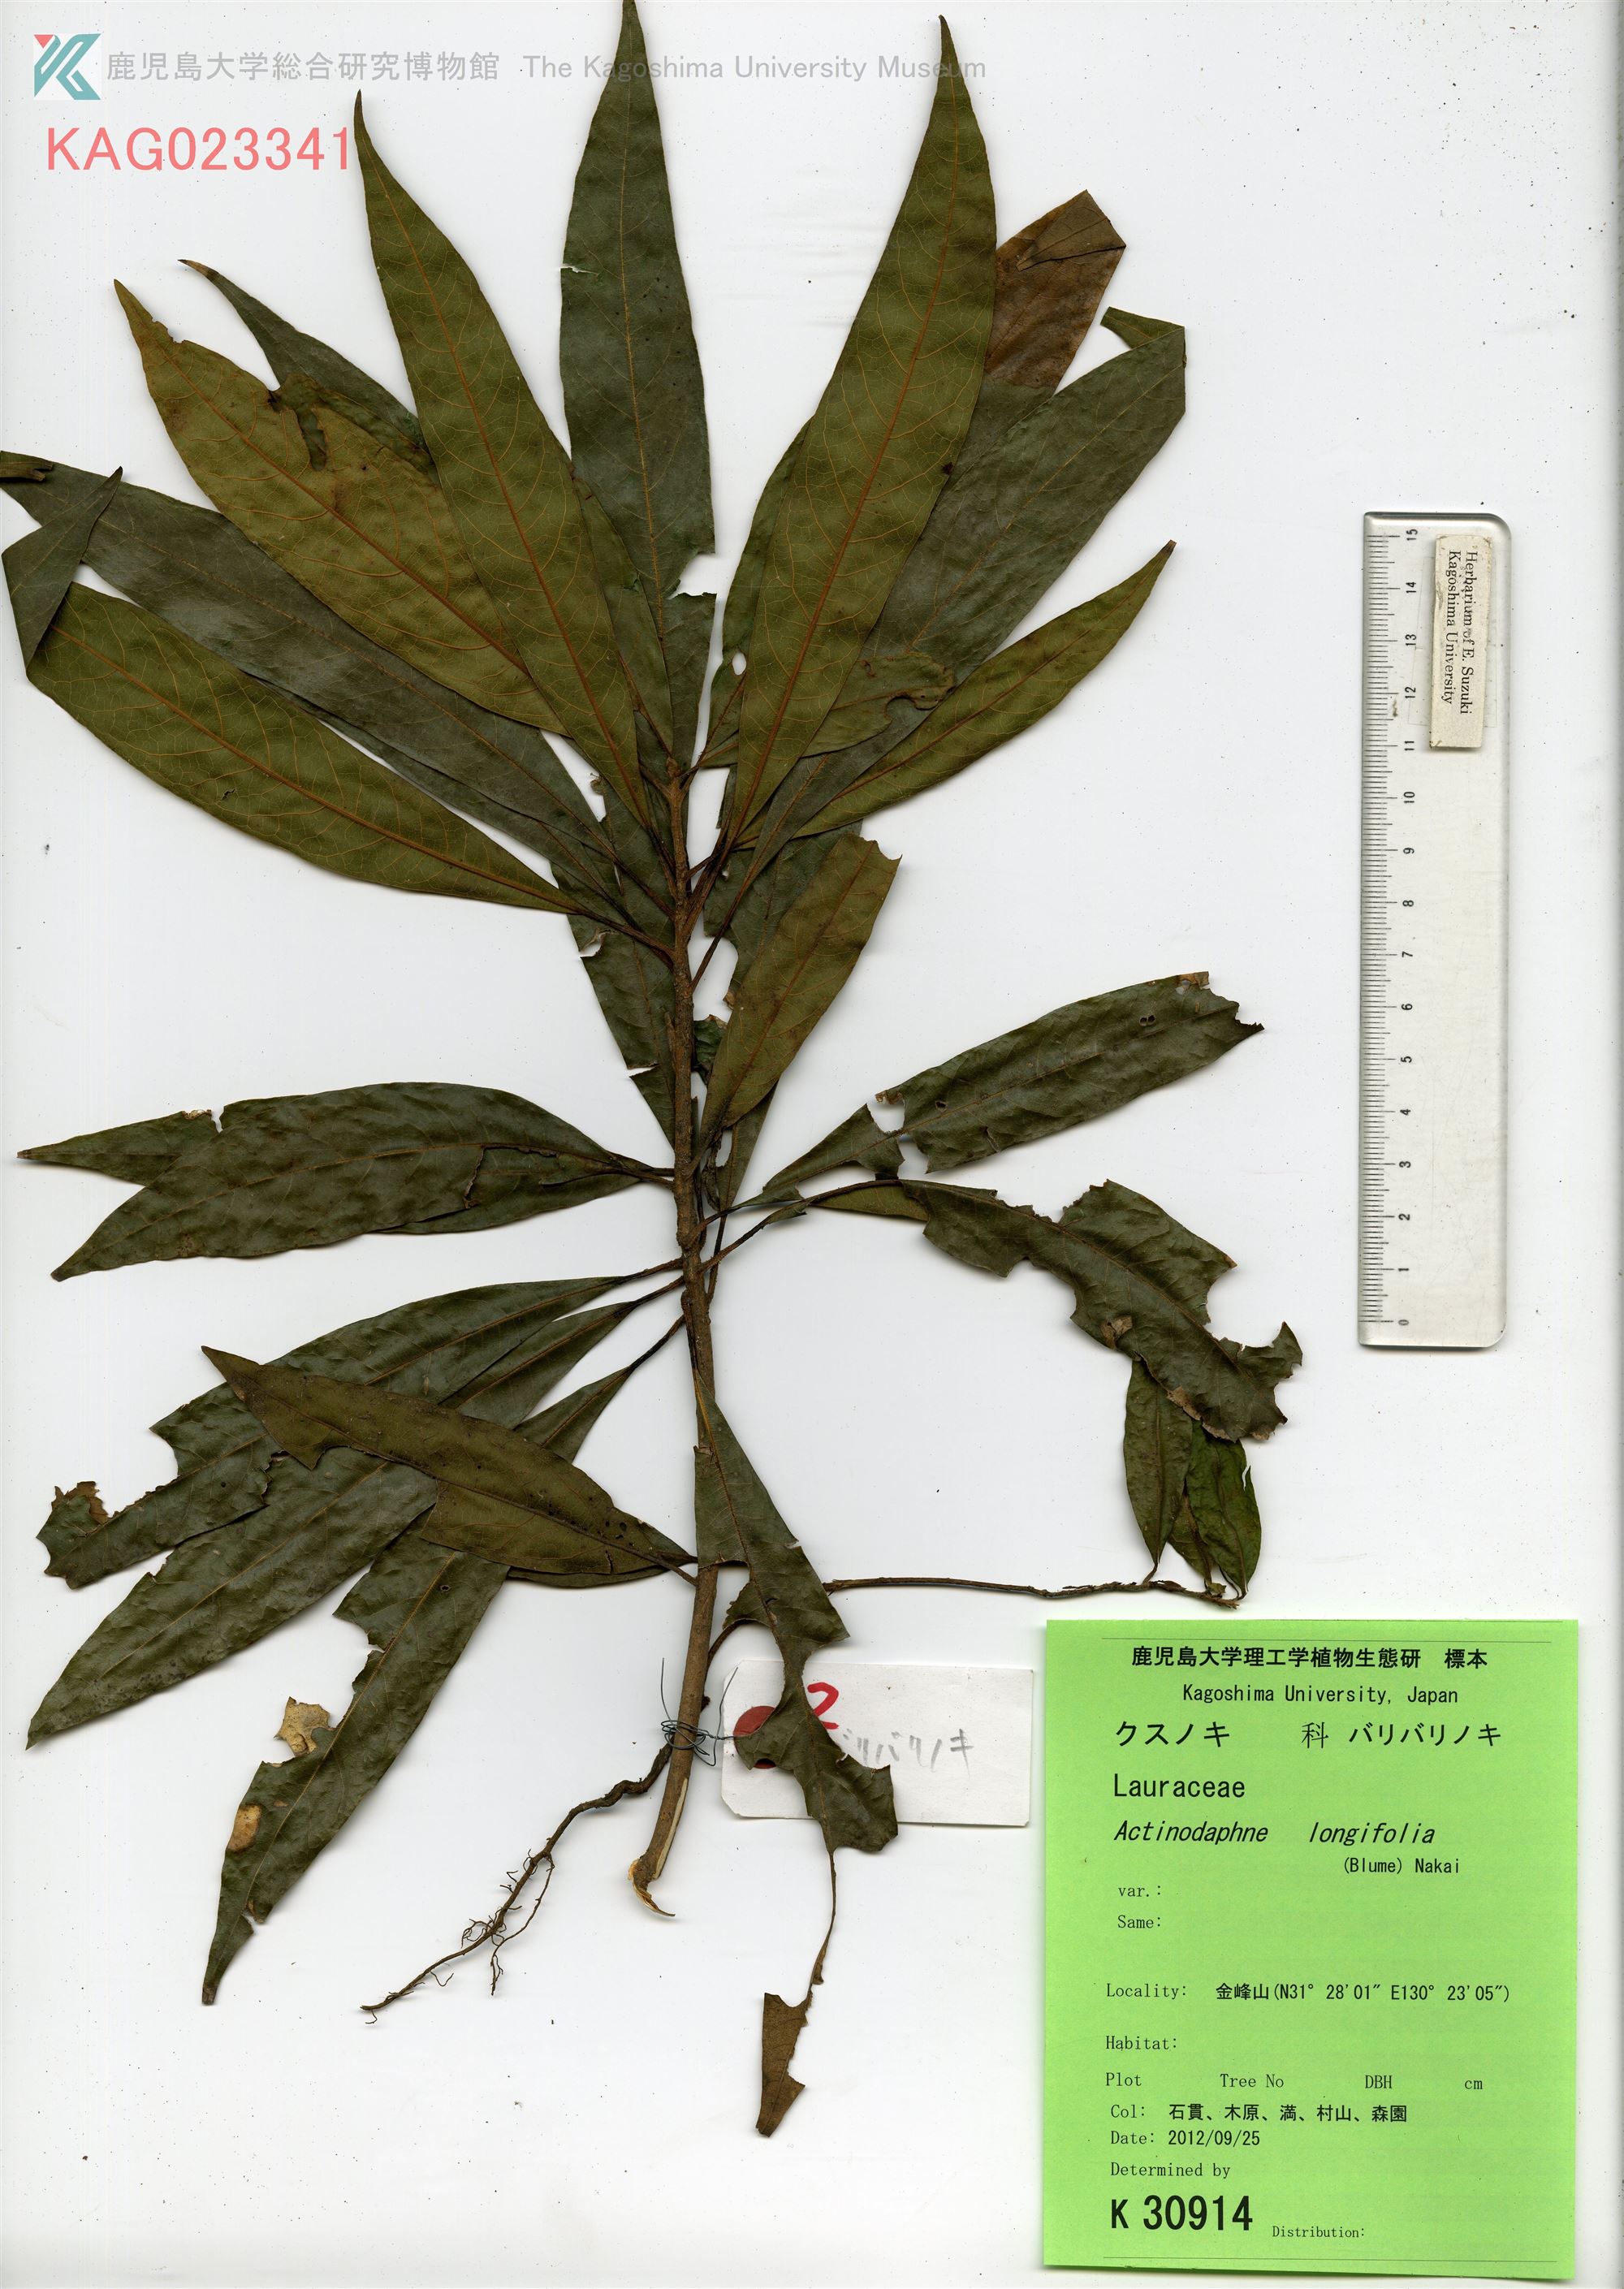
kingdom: Plantae
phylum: Tracheophyta
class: Magnoliopsida
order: Laurales
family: Lauraceae
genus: Actinodaphne
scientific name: Actinodaphne acuminata
